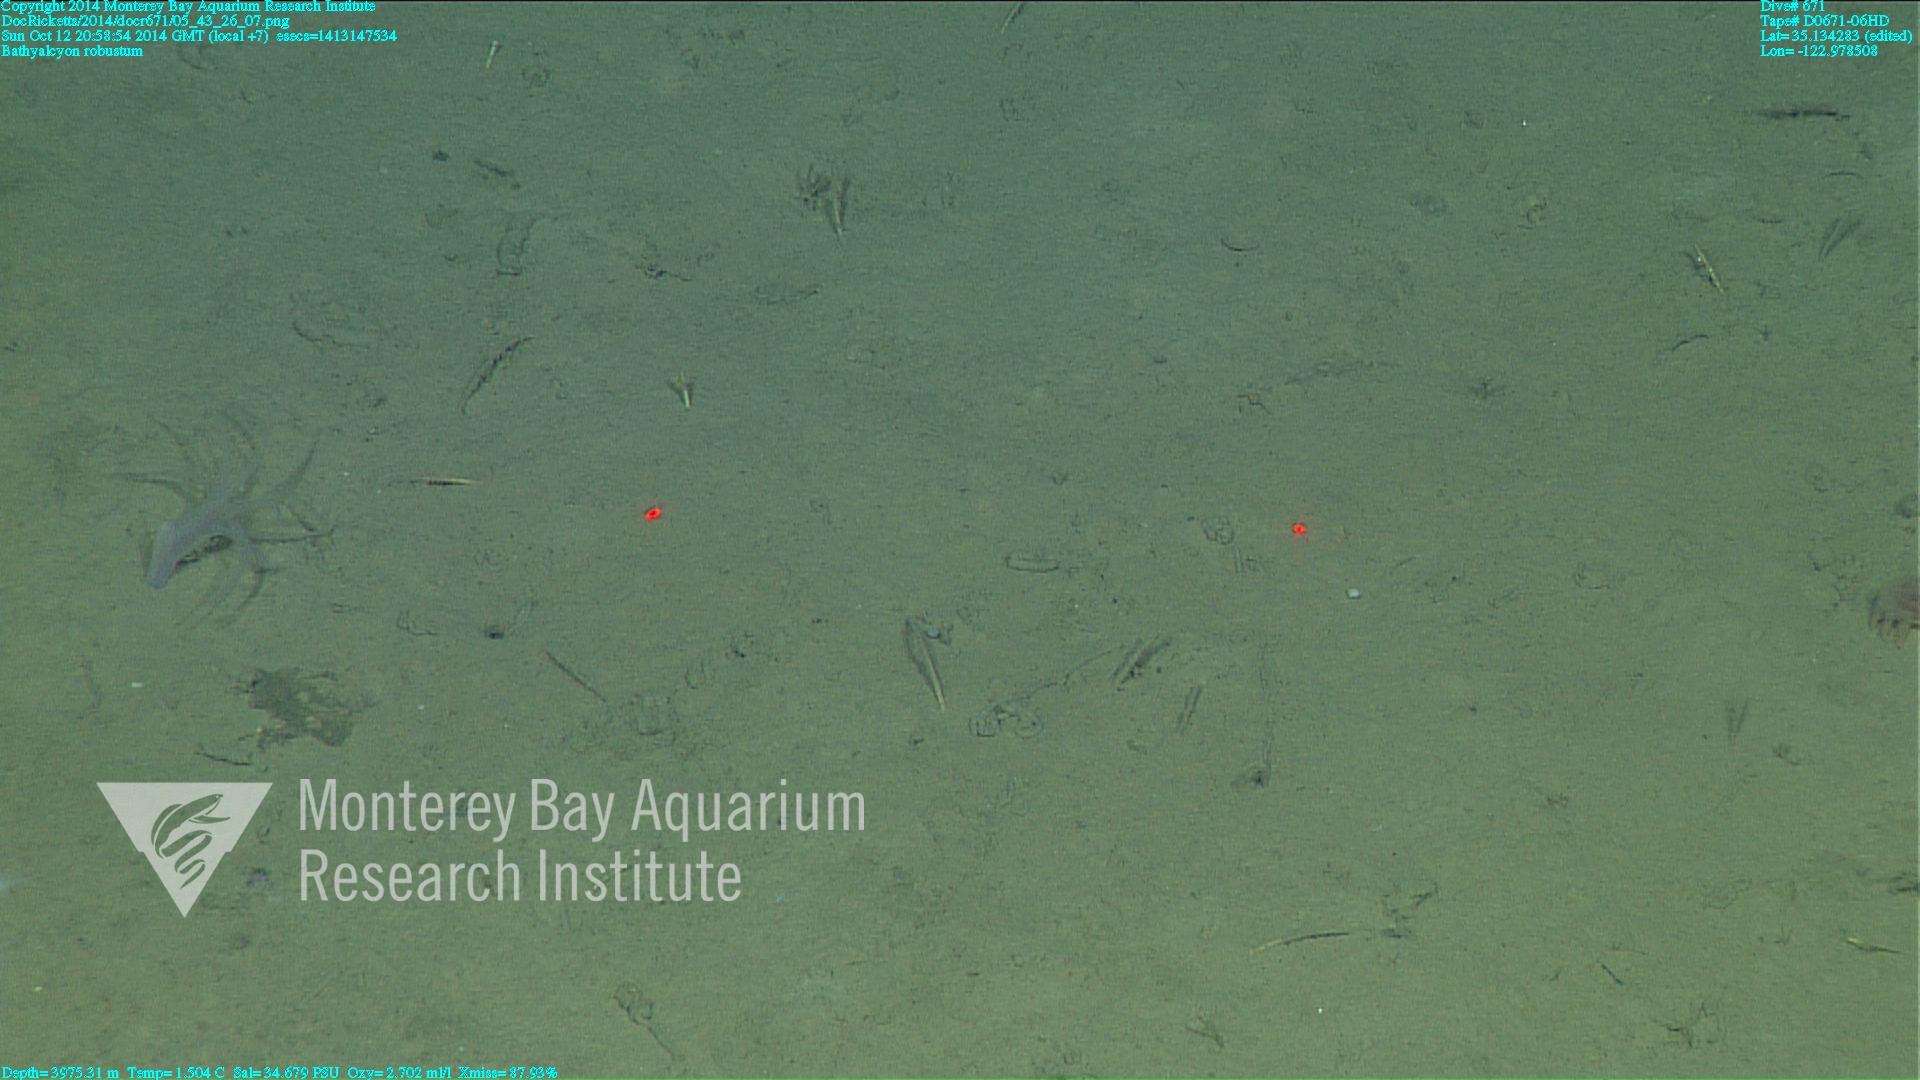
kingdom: Animalia
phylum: Cnidaria
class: Anthozoa
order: Scleralcyonacea
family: Coralliidae
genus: Bathyalcyon
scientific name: Bathyalcyon robustum
